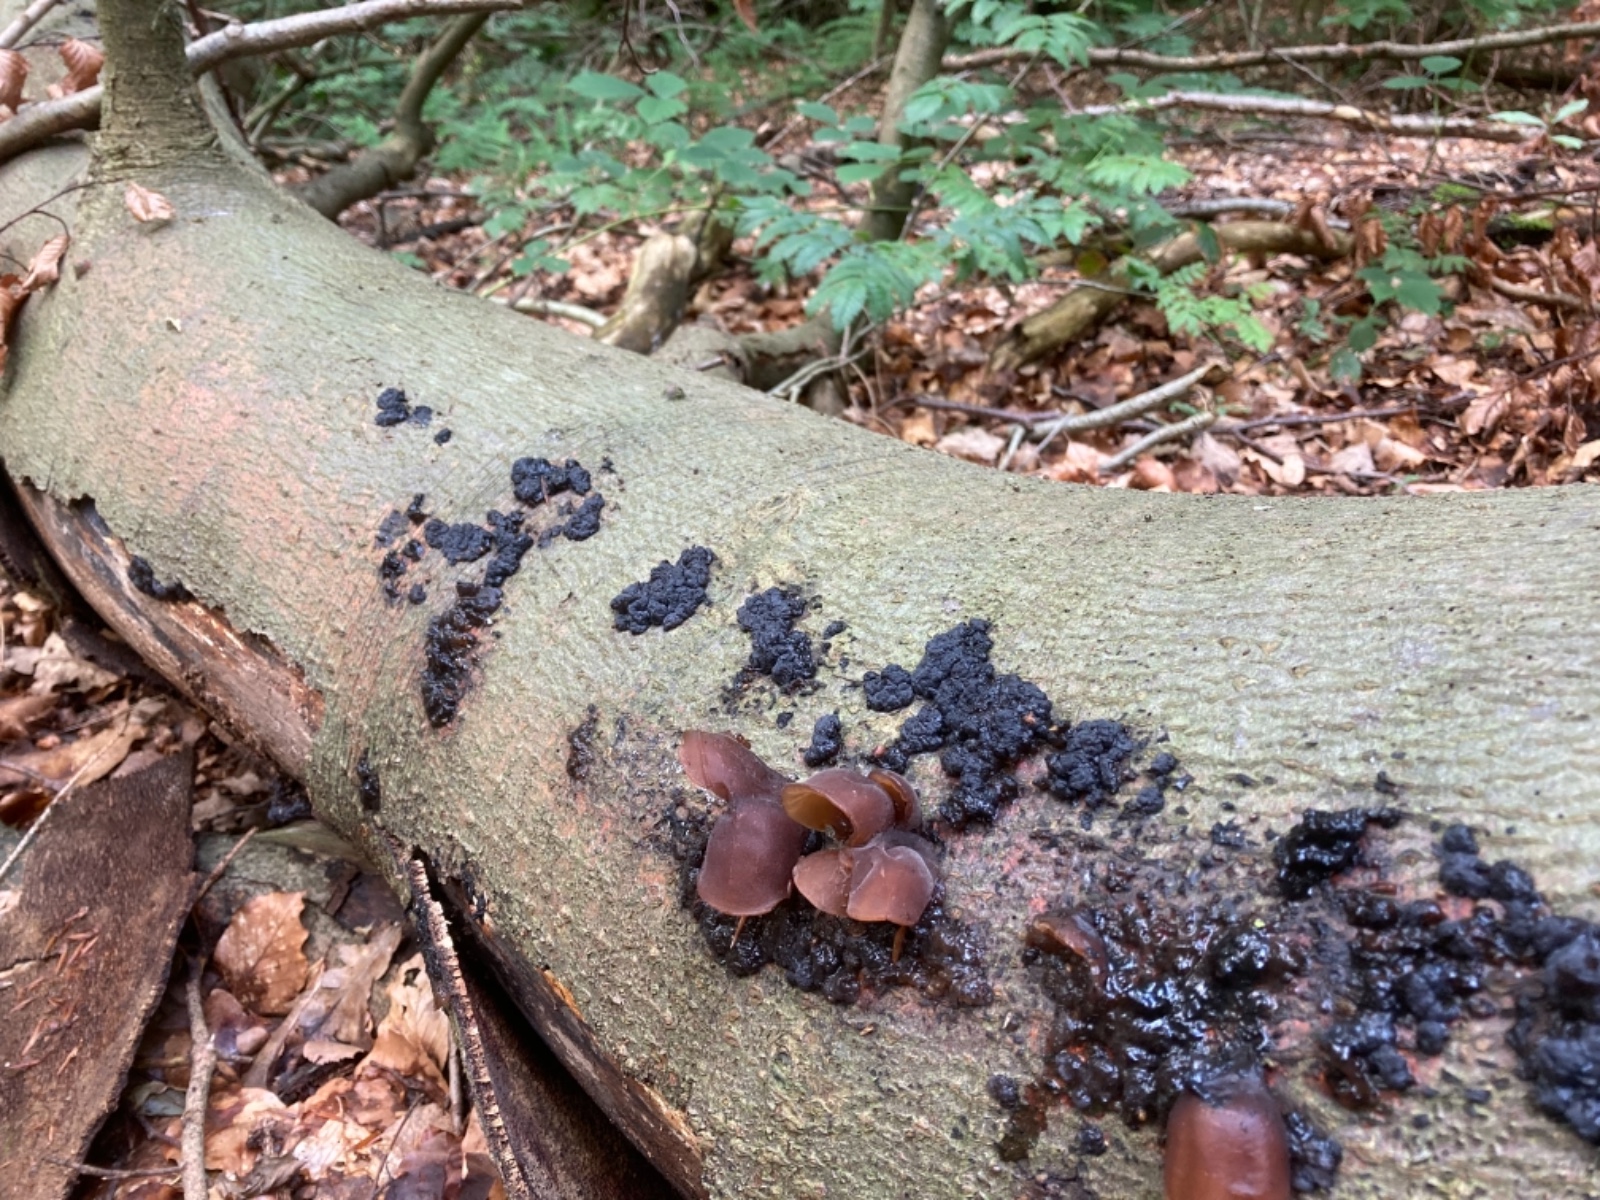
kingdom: Fungi
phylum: Basidiomycota
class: Agaricomycetes
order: Auriculariales
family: Auriculariaceae
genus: Auricularia
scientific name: Auricularia auricula-judae
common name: almindelig judasøre
